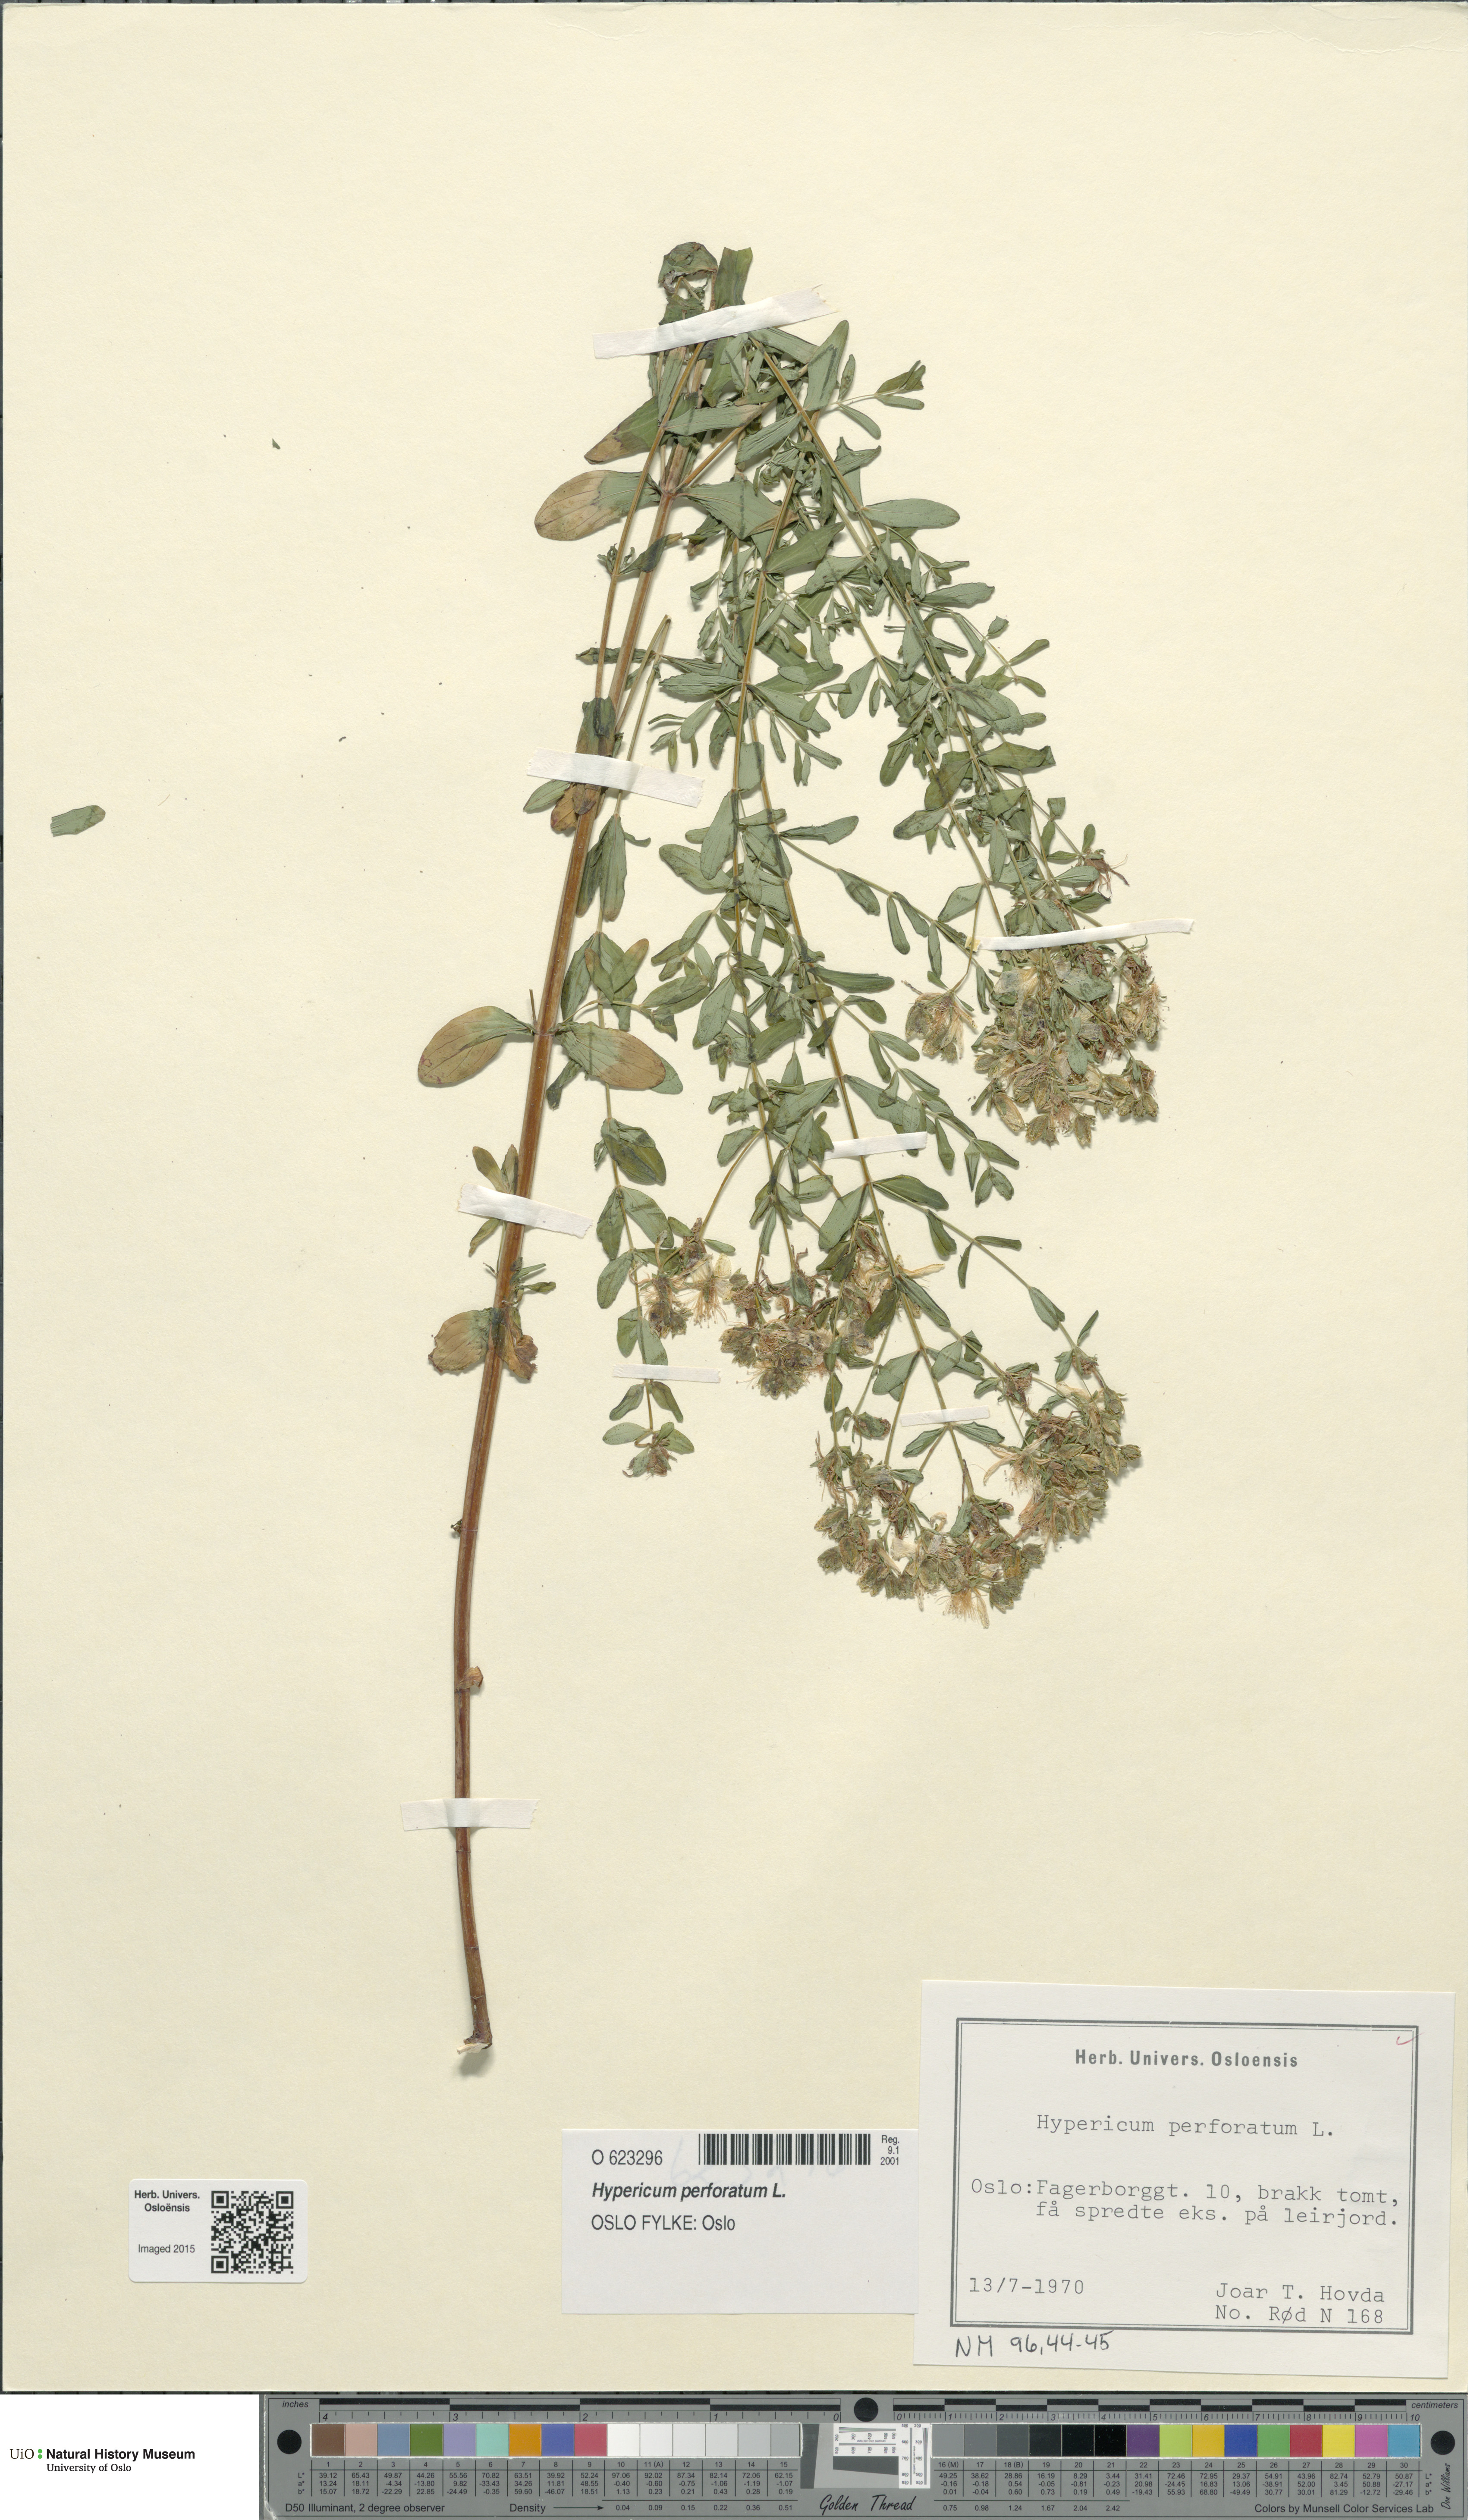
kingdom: Plantae
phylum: Tracheophyta
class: Magnoliopsida
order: Malpighiales
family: Hypericaceae
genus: Hypericum
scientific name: Hypericum perforatum
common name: Common st. johnswort
